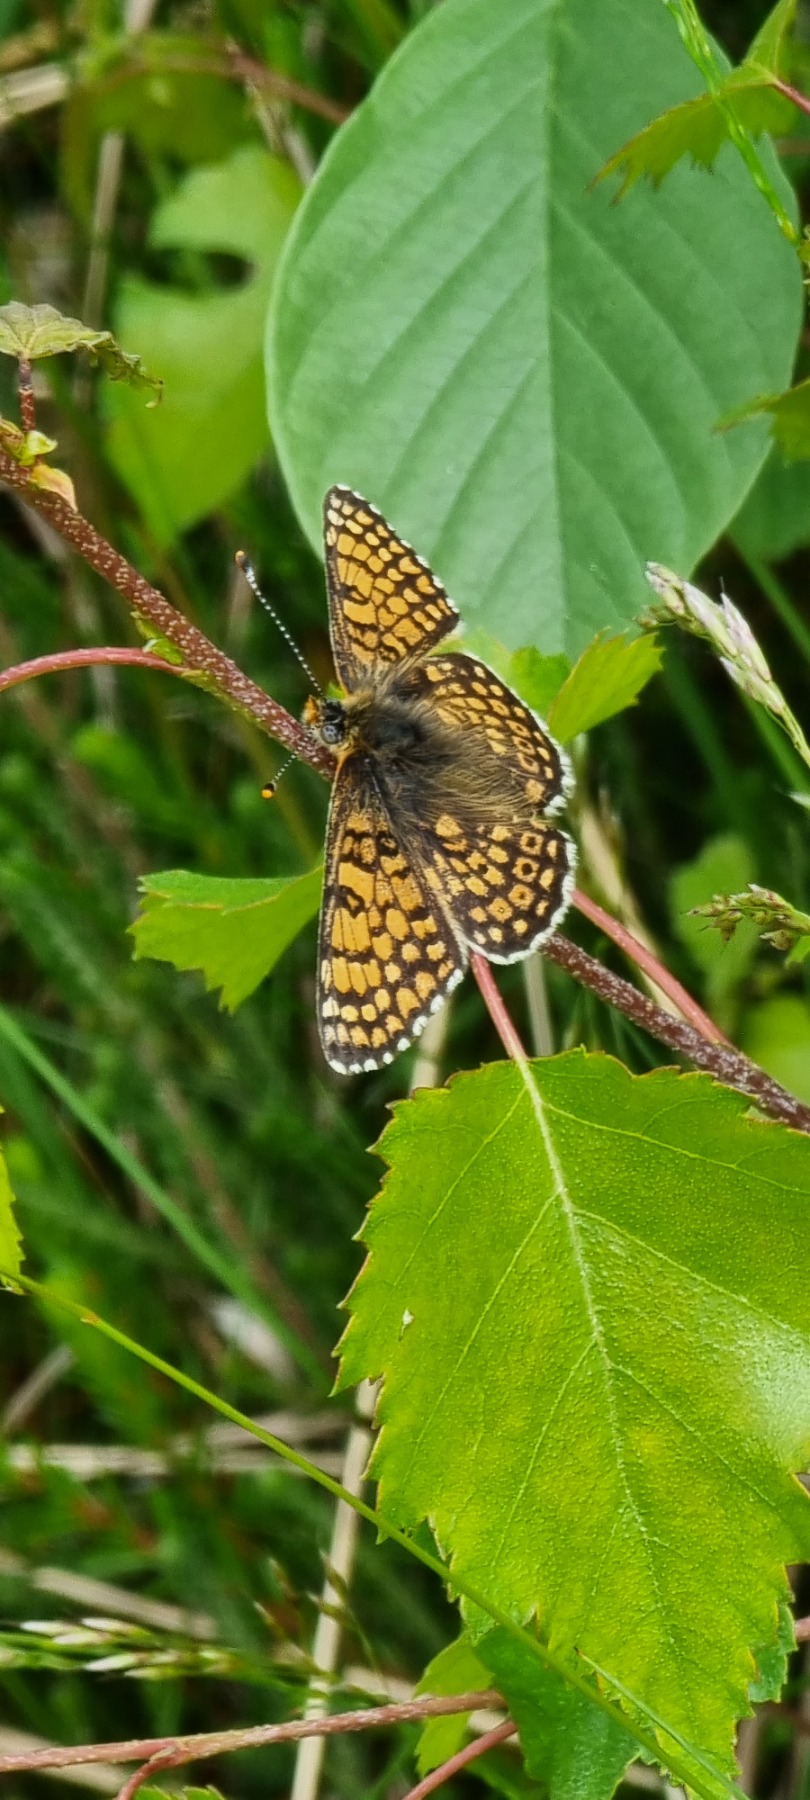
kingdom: Animalia
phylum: Arthropoda
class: Insecta
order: Lepidoptera
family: Nymphalidae
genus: Melitaea
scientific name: Melitaea cinxia
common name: Okkergul pletvinge
